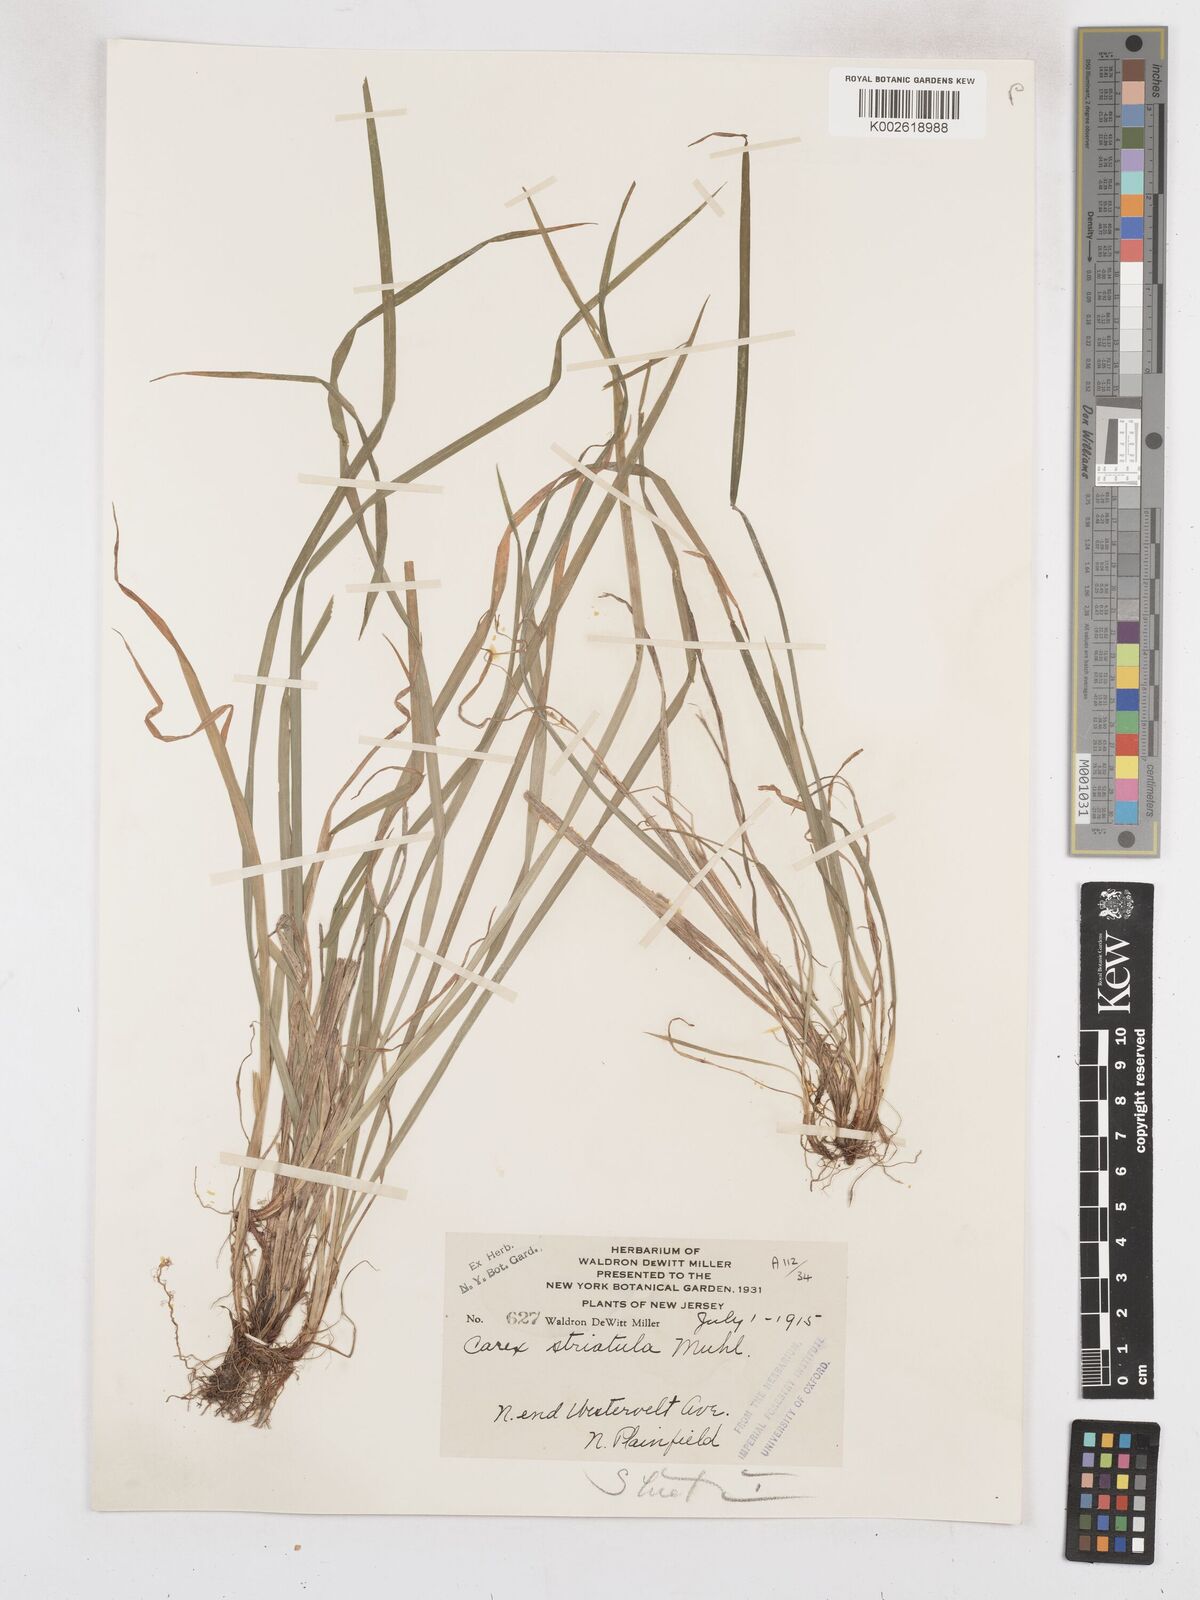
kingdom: Plantae
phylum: Tracheophyta
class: Liliopsida
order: Poales
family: Cyperaceae
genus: Carex
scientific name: Carex striatula
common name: Lined sedge
